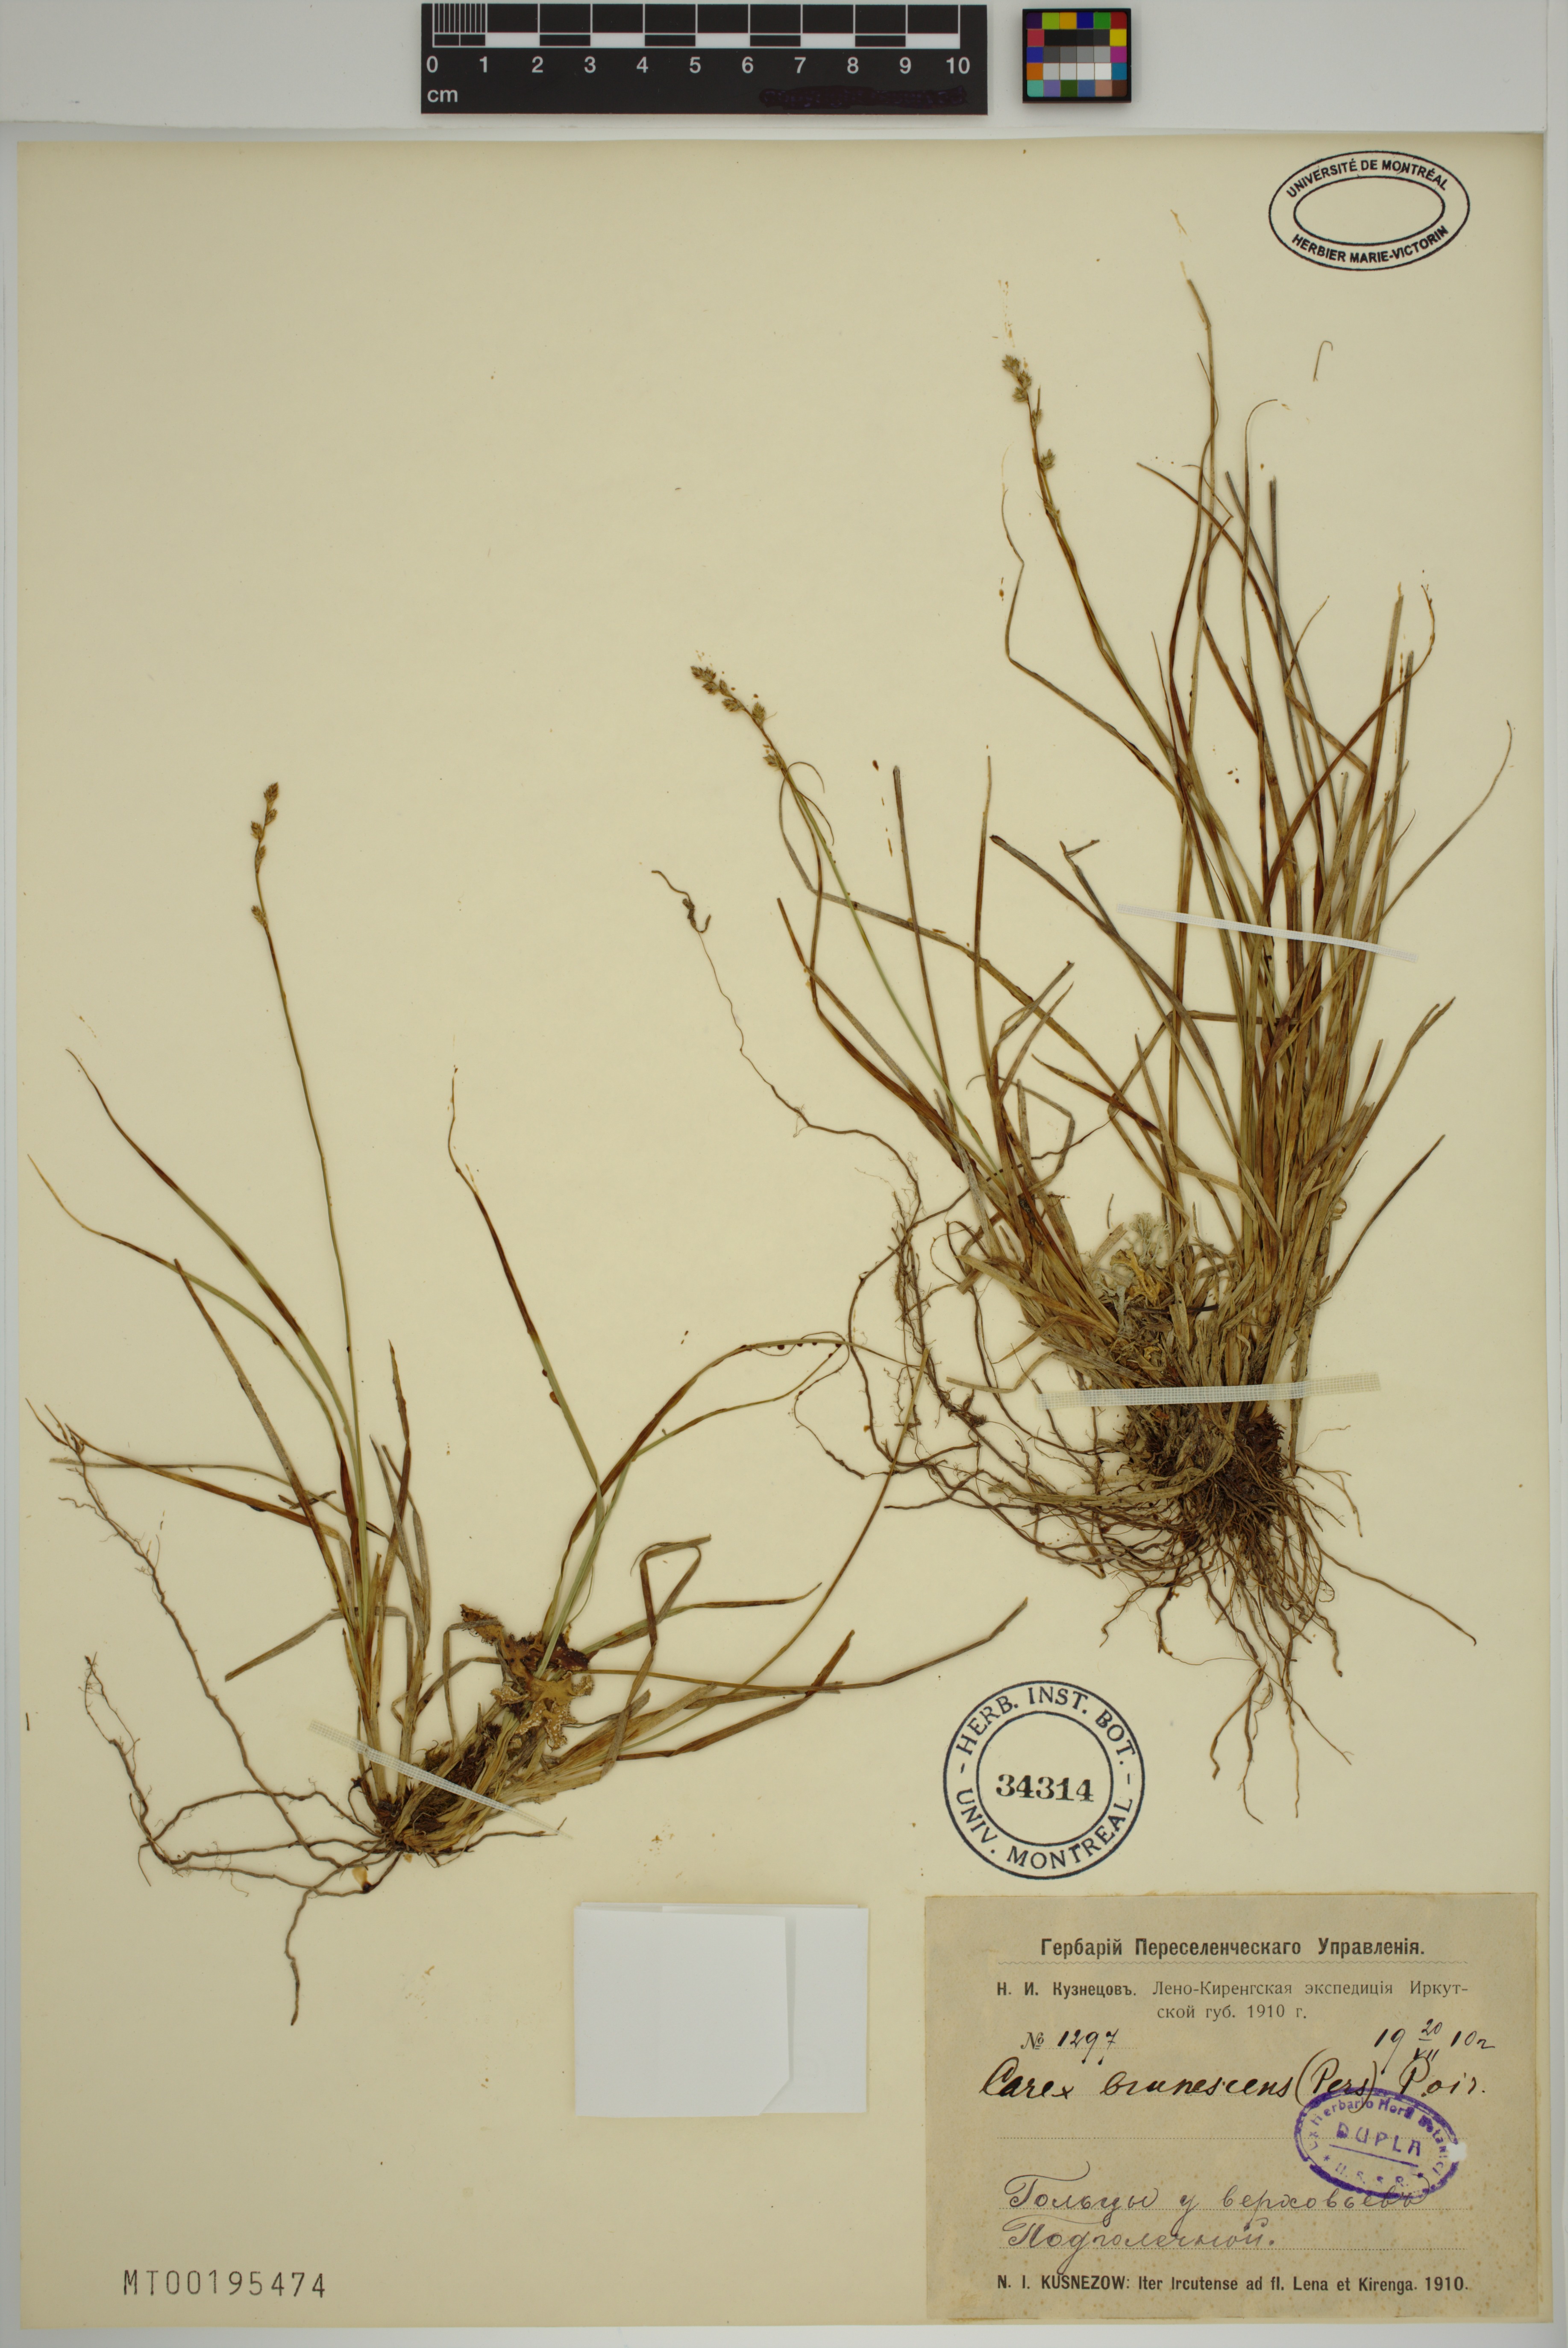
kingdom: Plantae
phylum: Tracheophyta
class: Liliopsida
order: Poales
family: Cyperaceae
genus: Carex
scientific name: Carex brunnescens
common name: Brown sedge
